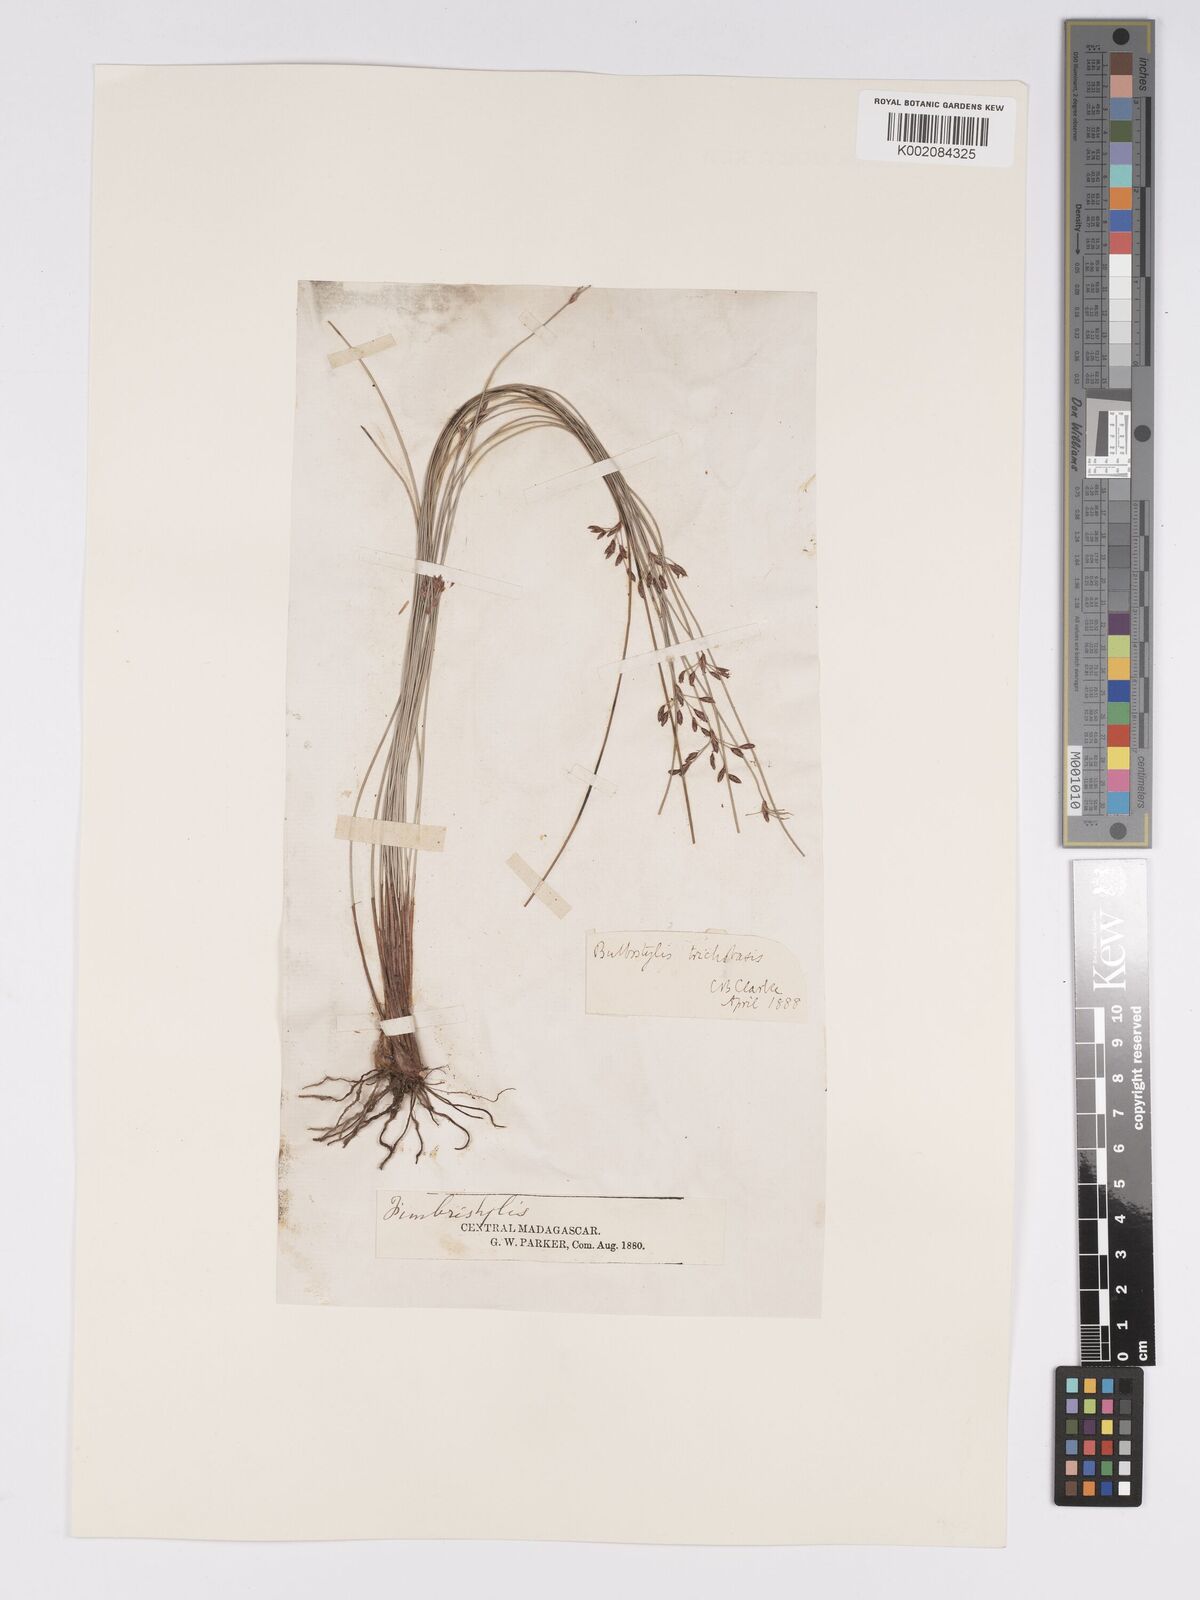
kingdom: Plantae
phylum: Tracheophyta
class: Liliopsida
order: Poales
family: Cyperaceae
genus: Bulbostylis
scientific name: Bulbostylis trichobasis
